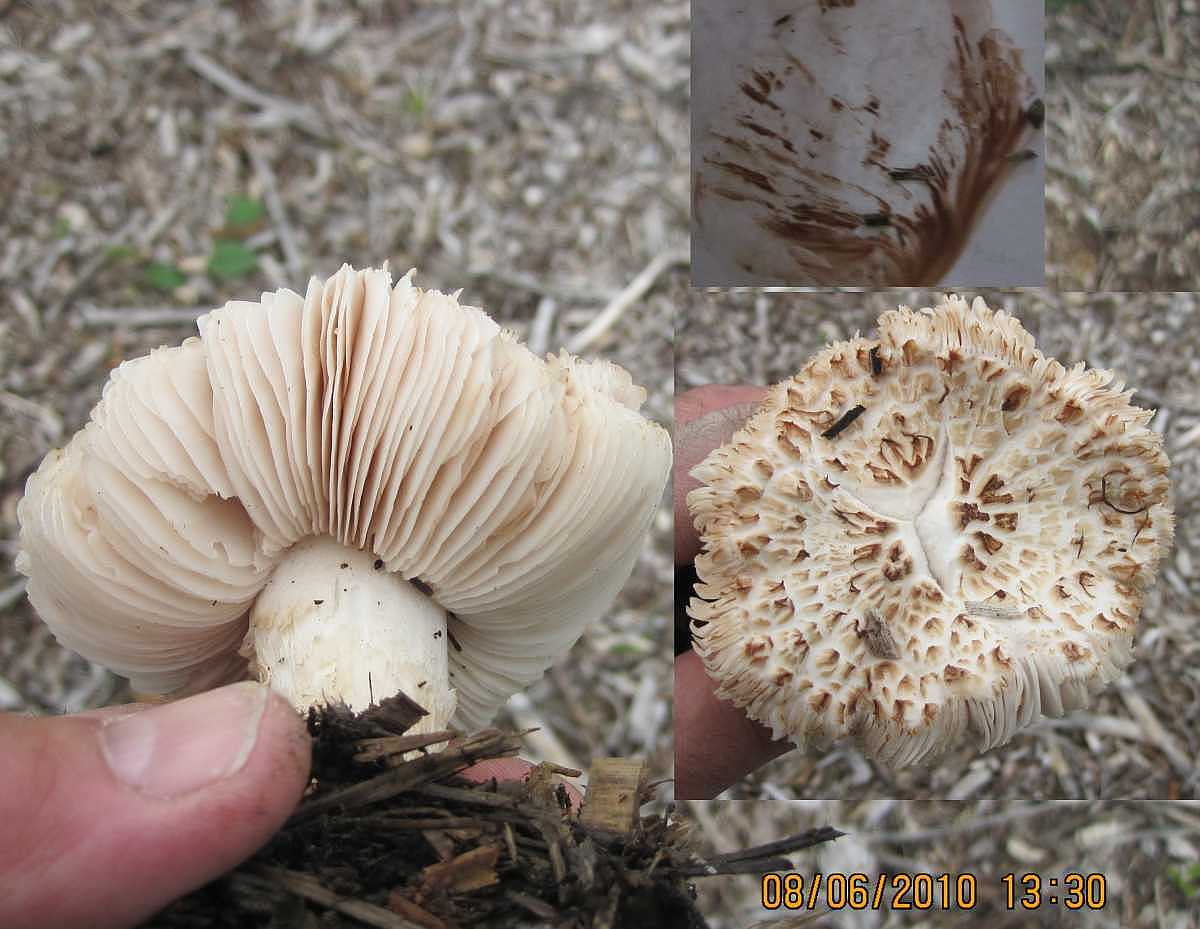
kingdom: Fungi
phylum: Basidiomycota
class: Agaricomycetes
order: Agaricales
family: Pluteaceae
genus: Pluteus
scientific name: Pluteus petasatus
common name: savsmulds-skærmhat
